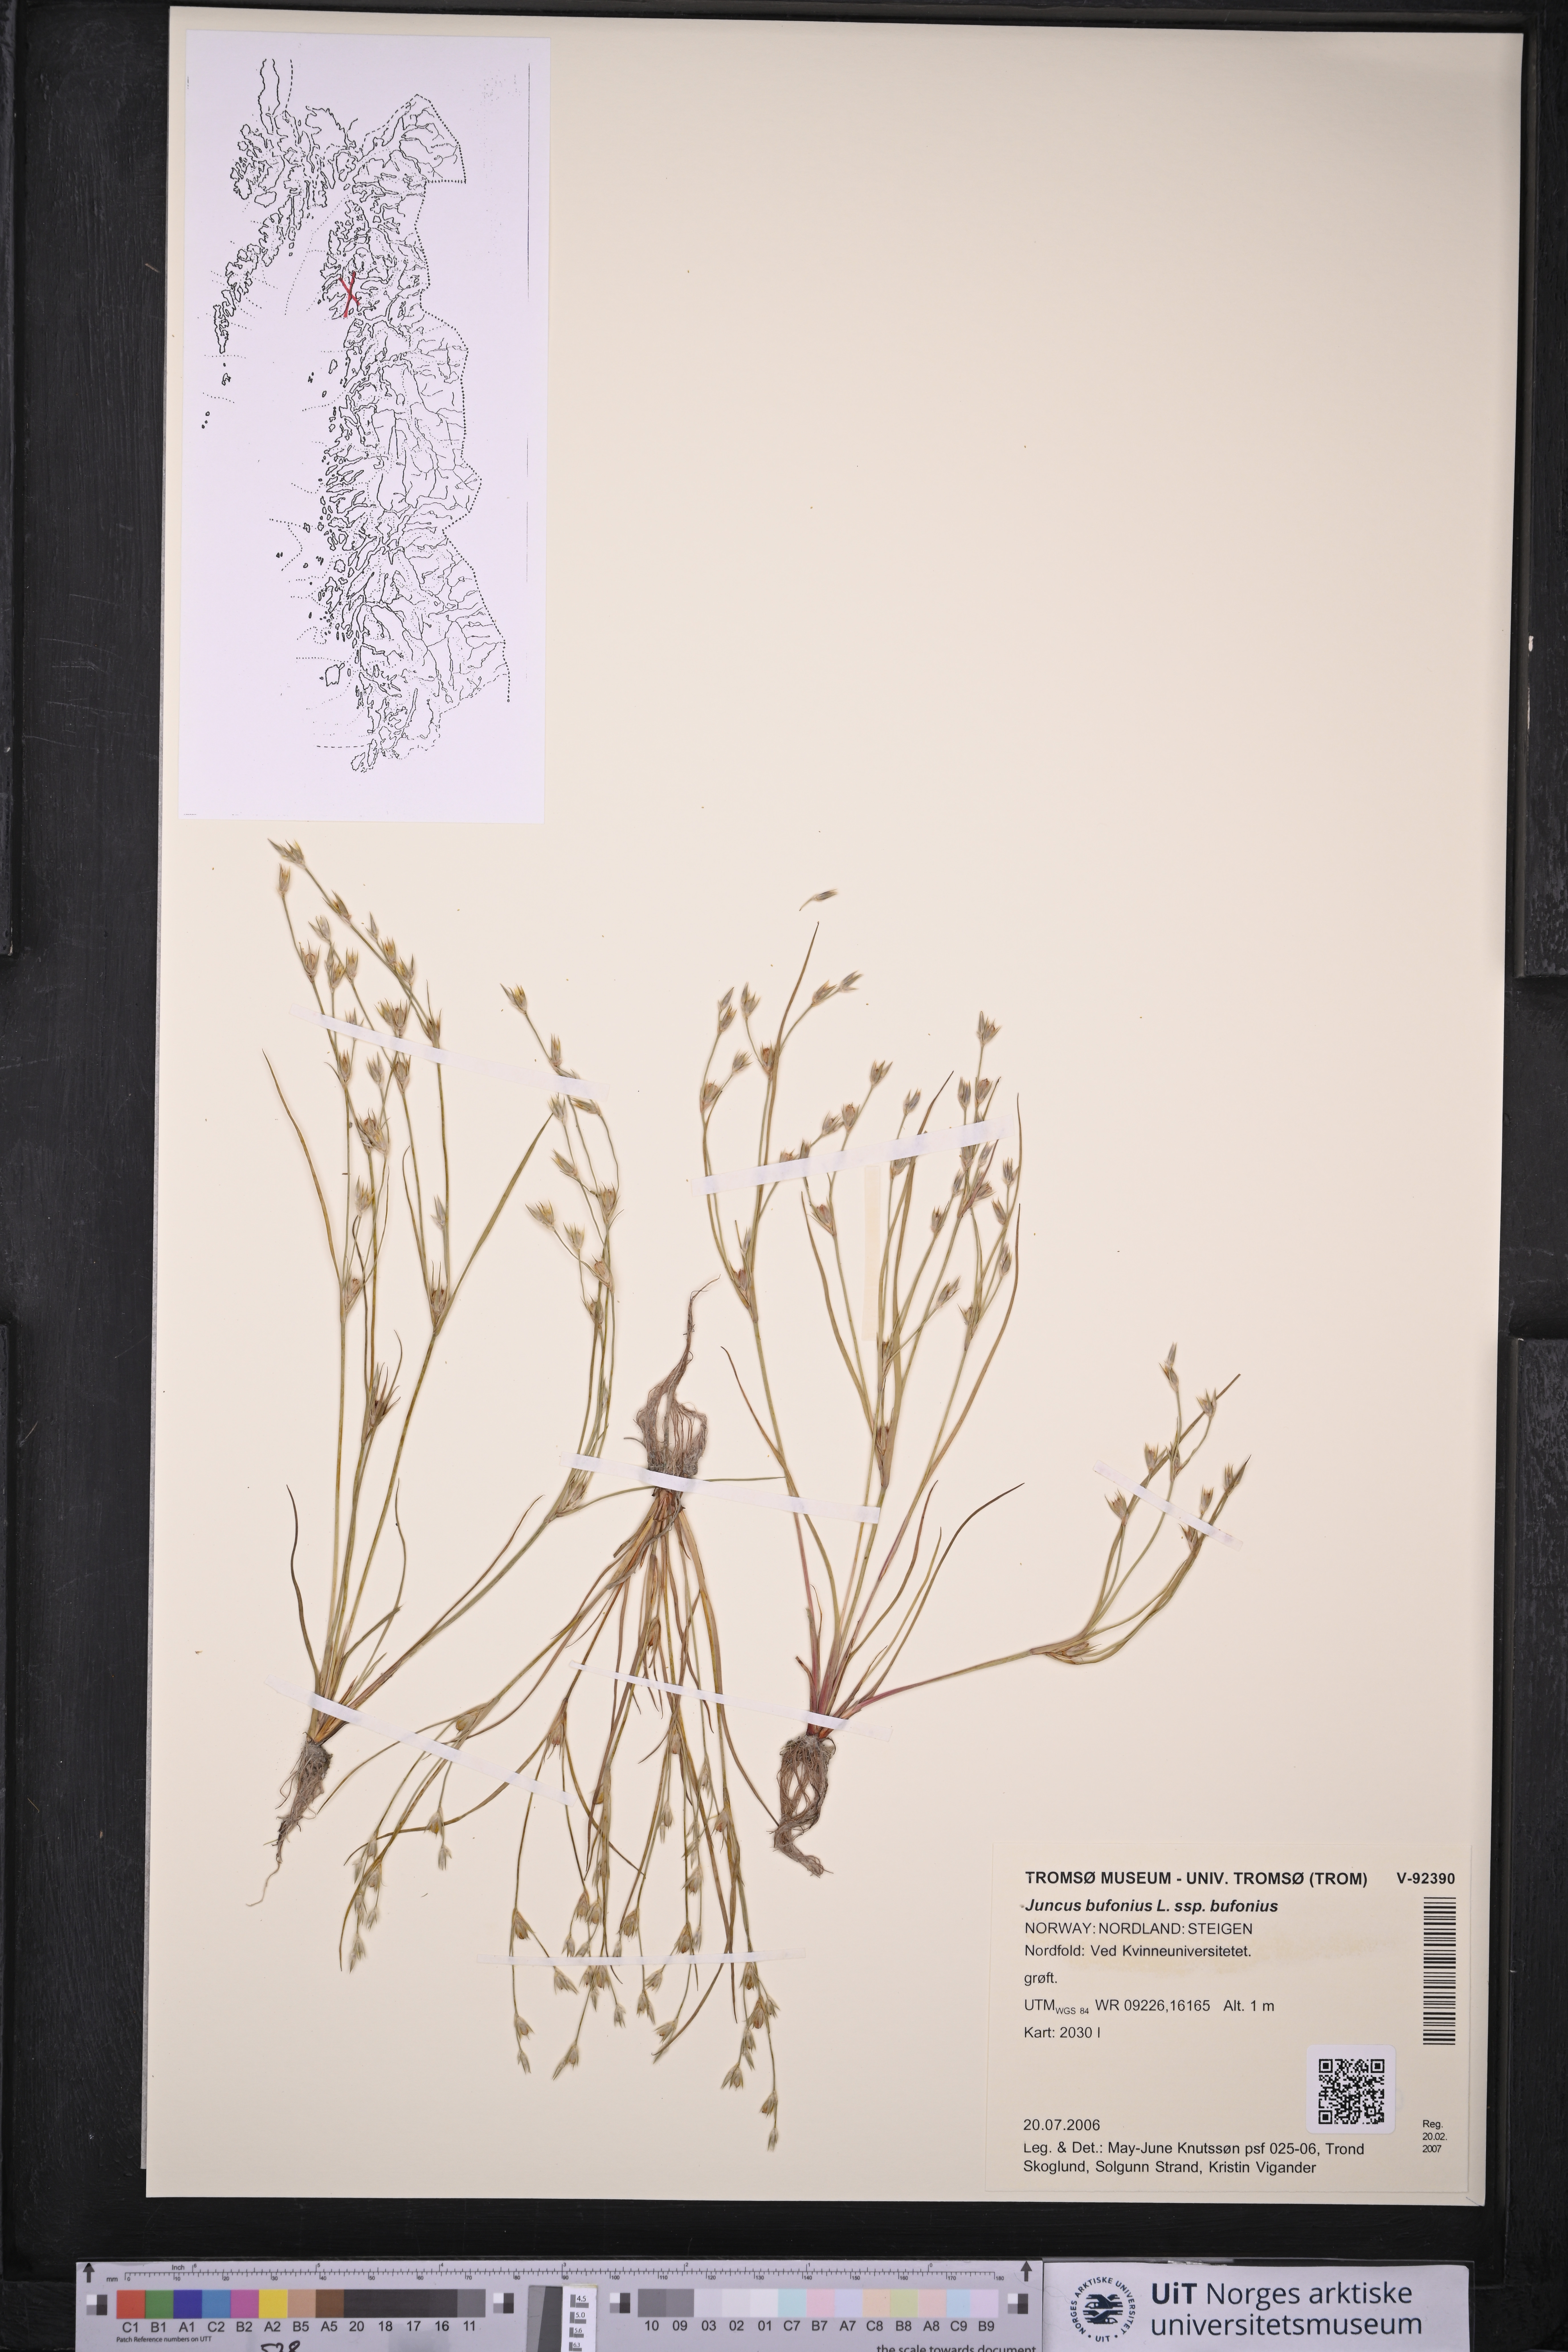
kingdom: Plantae
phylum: Tracheophyta
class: Liliopsida
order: Poales
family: Juncaceae
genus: Juncus
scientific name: Juncus bufonius
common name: Toad rush
